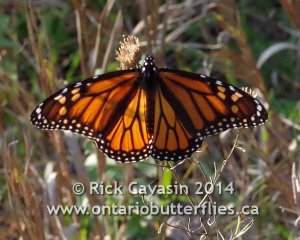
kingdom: Animalia
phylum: Arthropoda
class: Insecta
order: Lepidoptera
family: Nymphalidae
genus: Danaus
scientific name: Danaus plexippus
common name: Monarch
